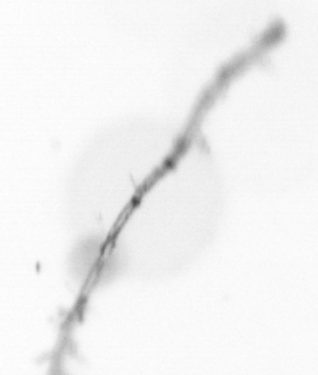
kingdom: Chromista
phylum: Ochrophyta
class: Bacillariophyceae
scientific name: Bacillariophyceae
